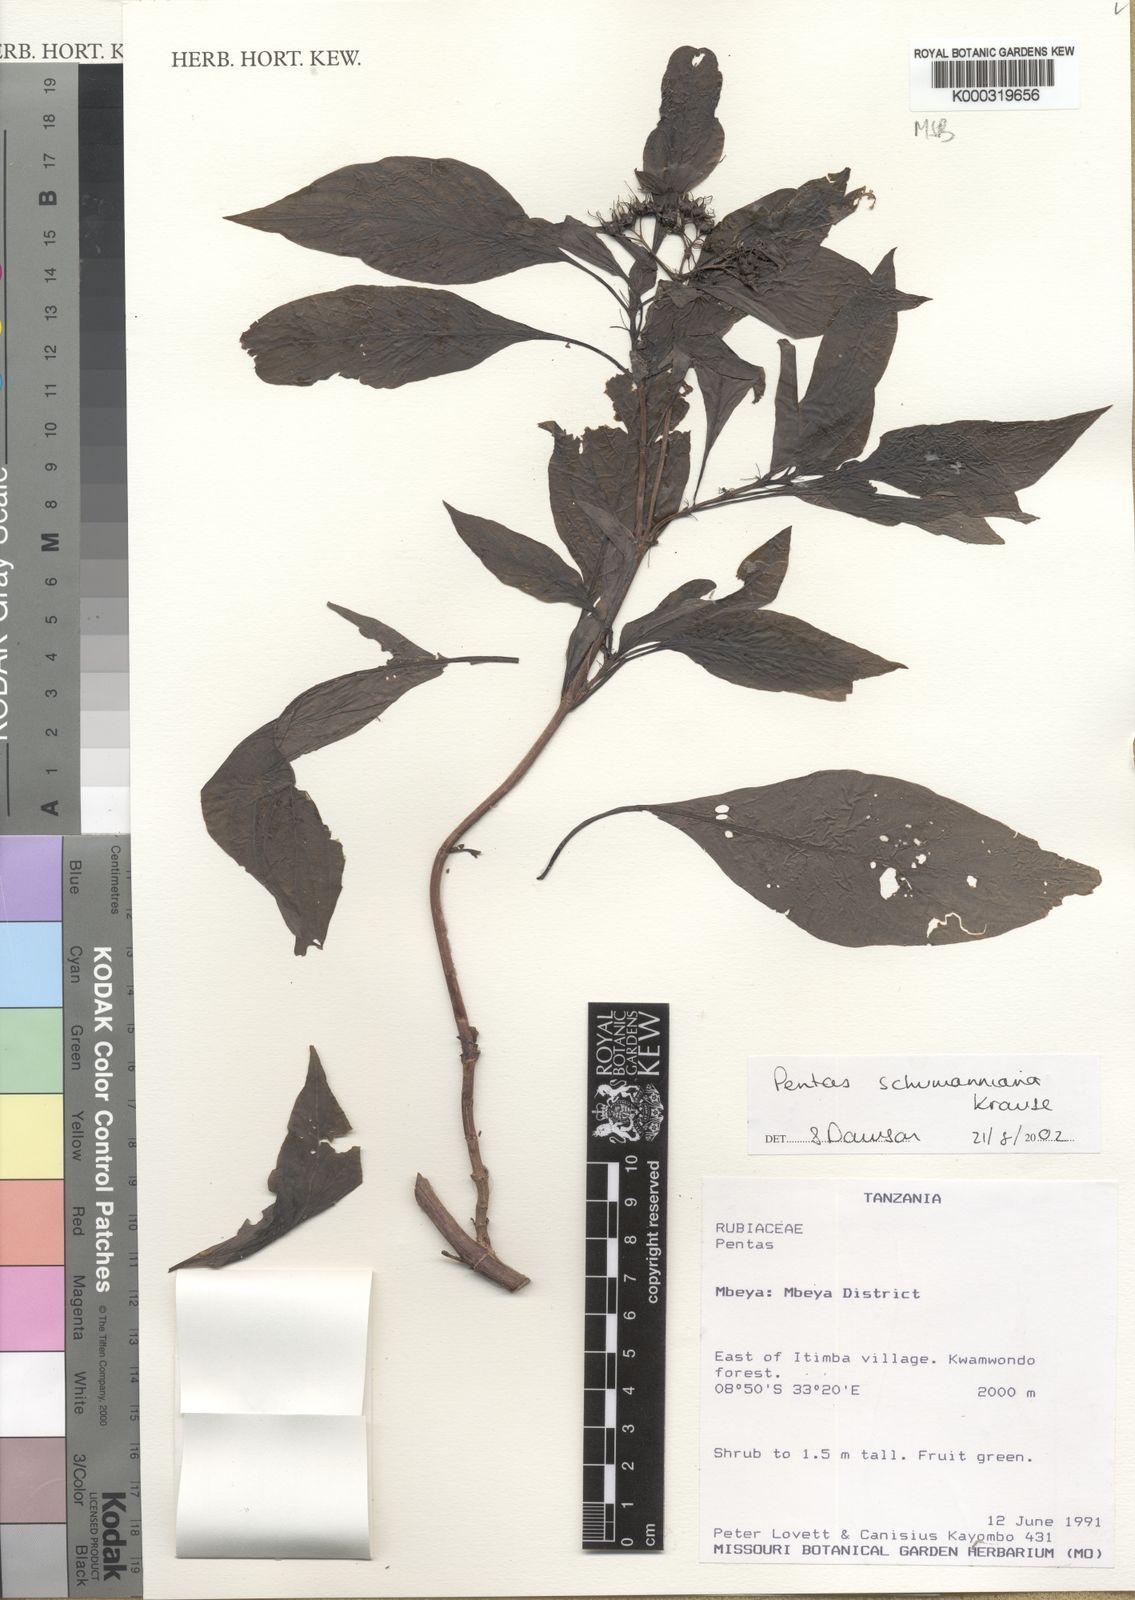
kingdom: Plantae
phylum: Tracheophyta
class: Magnoliopsida
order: Gentianales
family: Rubiaceae
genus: Phyllopentas
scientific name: Phyllopentas schumanniana
